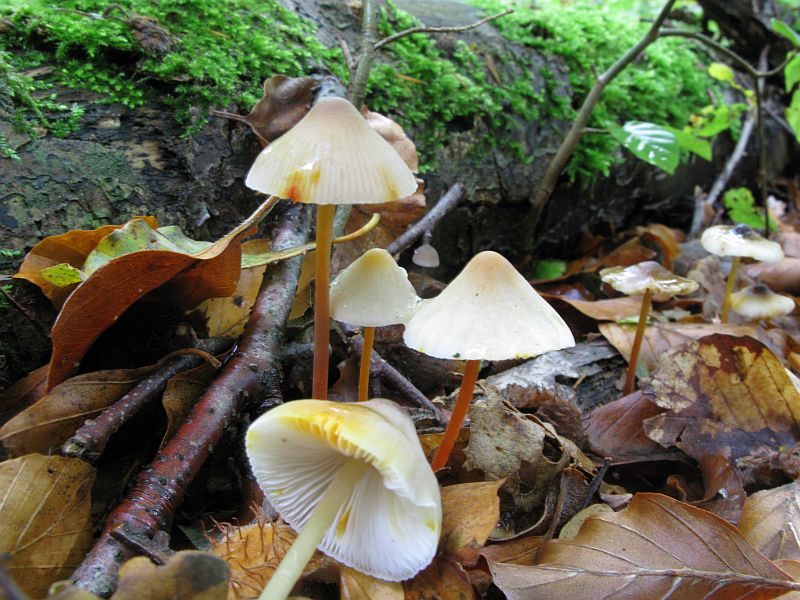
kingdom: Fungi
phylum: Basidiomycota
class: Agaricomycetes
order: Agaricales
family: Mycenaceae
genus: Mycena
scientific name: Mycena crocata
